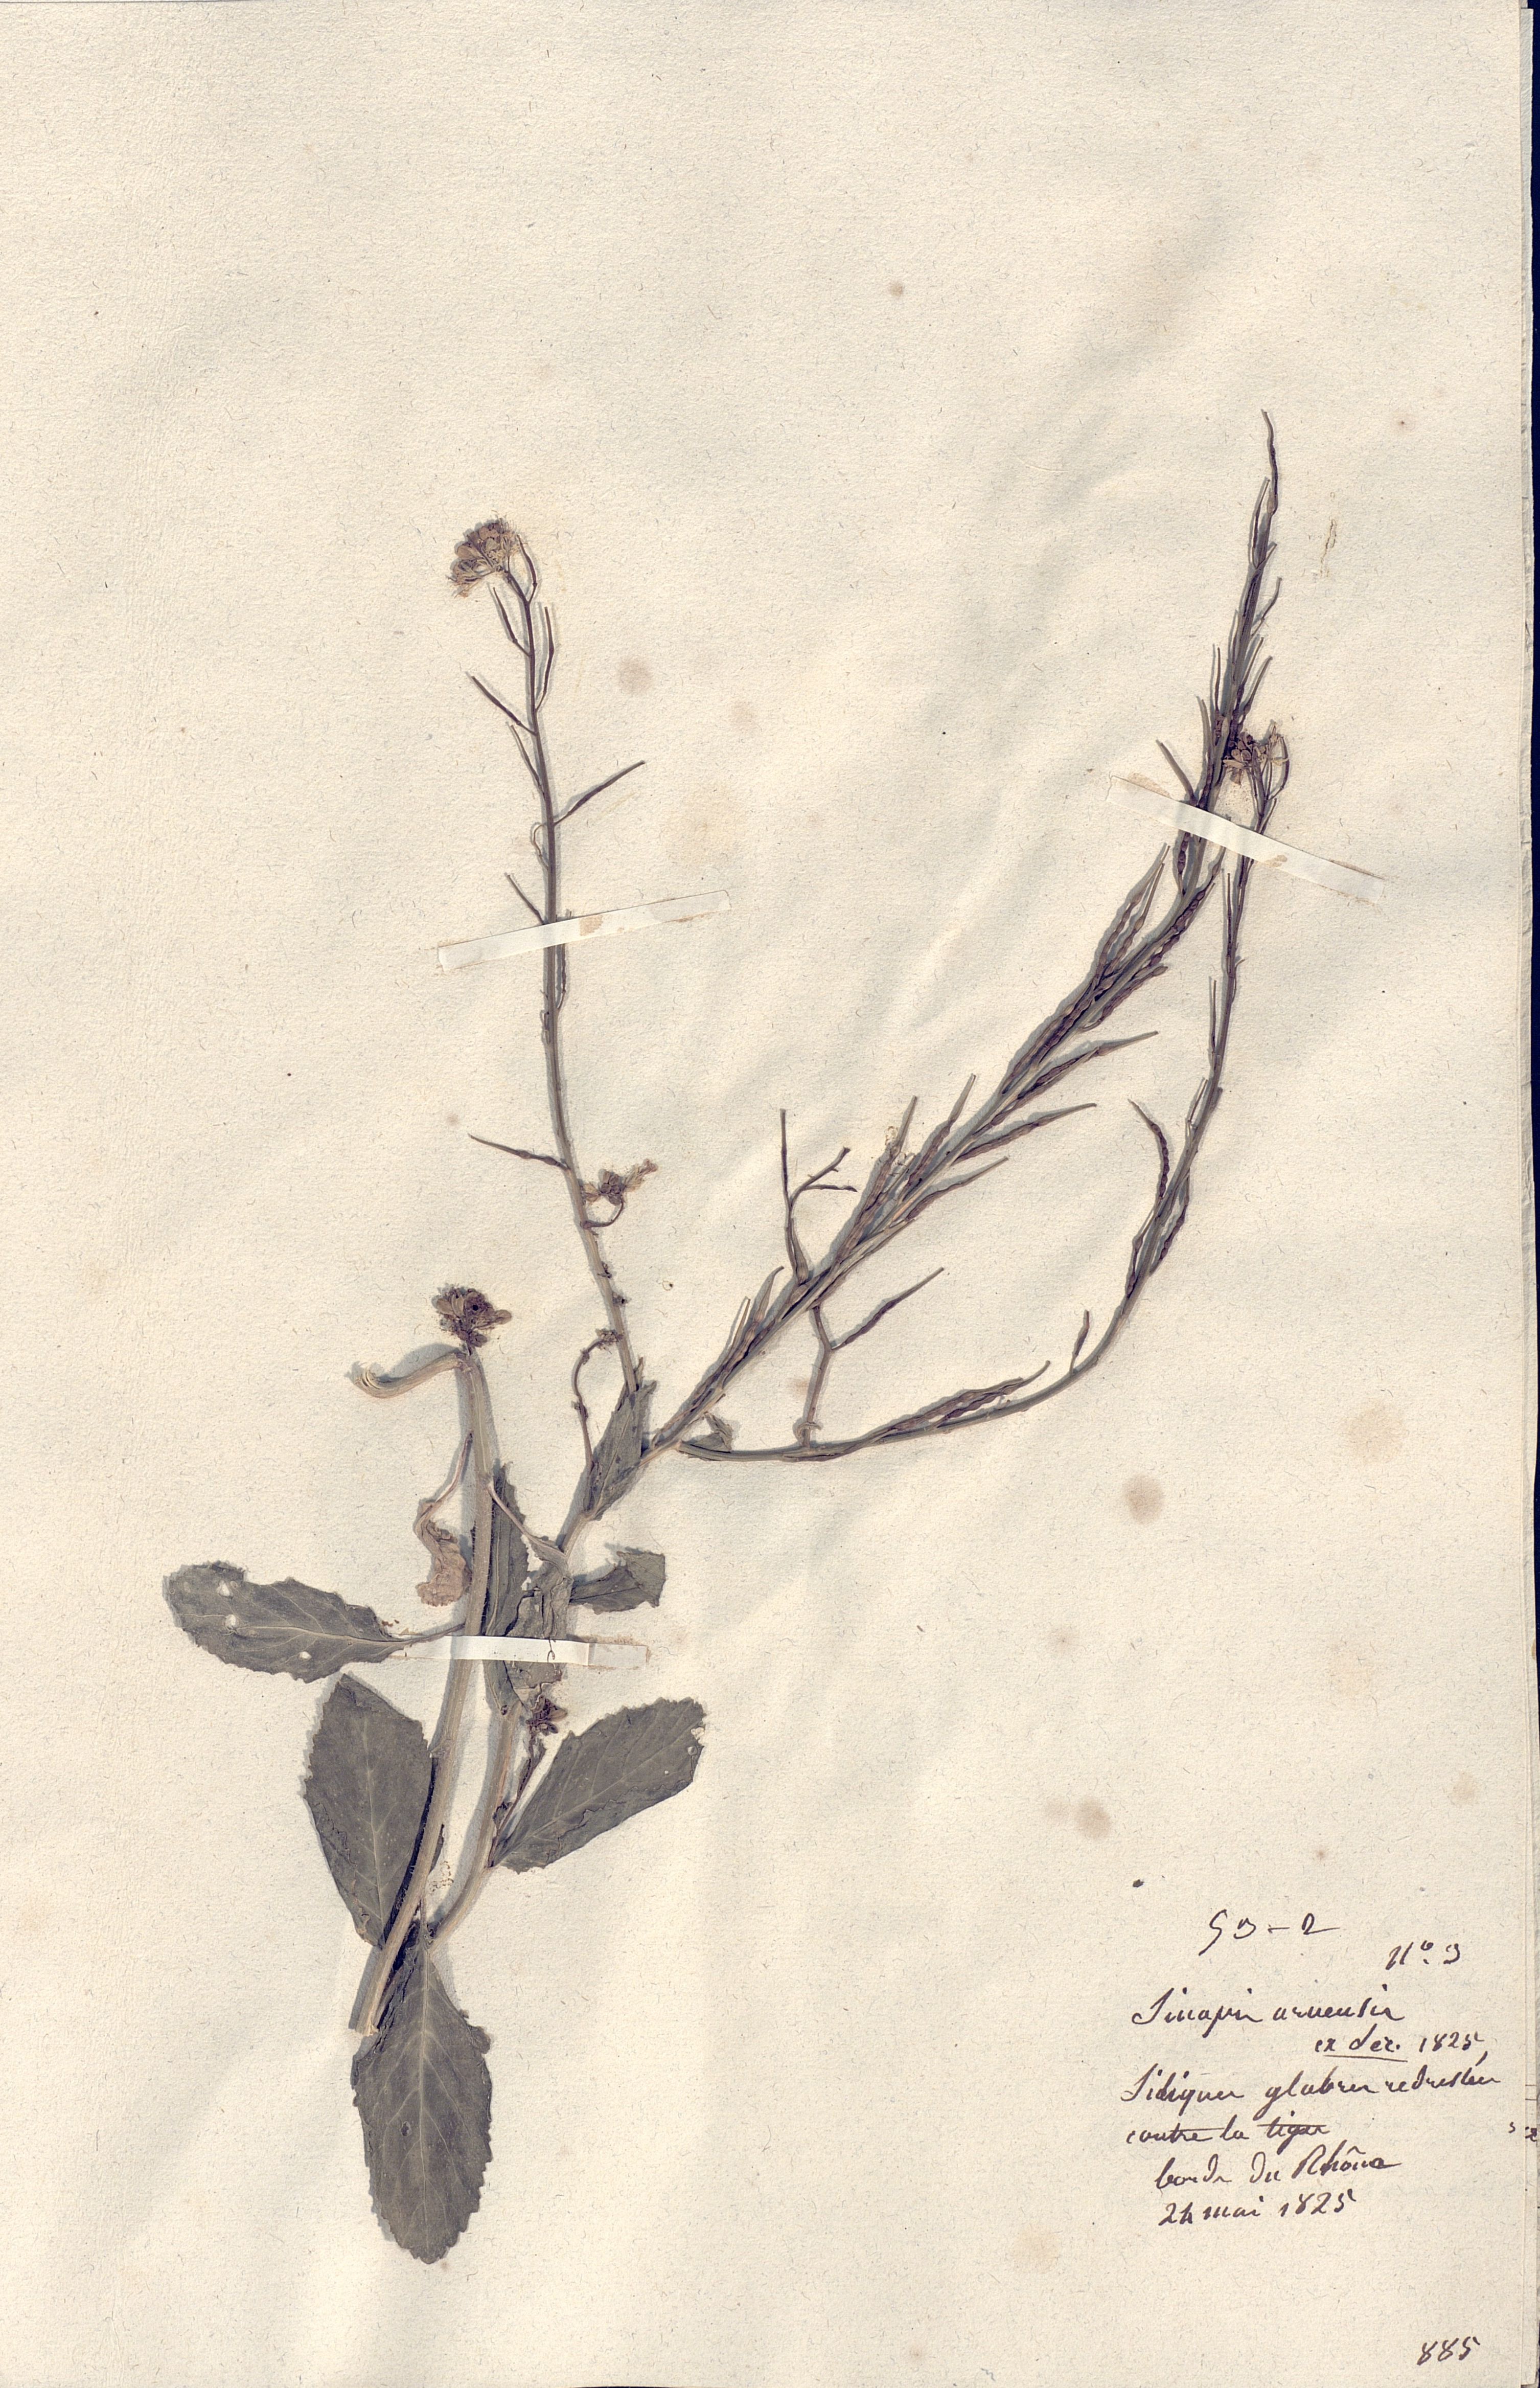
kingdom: Plantae
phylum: Tracheophyta
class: Magnoliopsida
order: Brassicales
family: Brassicaceae
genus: Sinapis
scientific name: Sinapis arvensis
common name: Charlock
